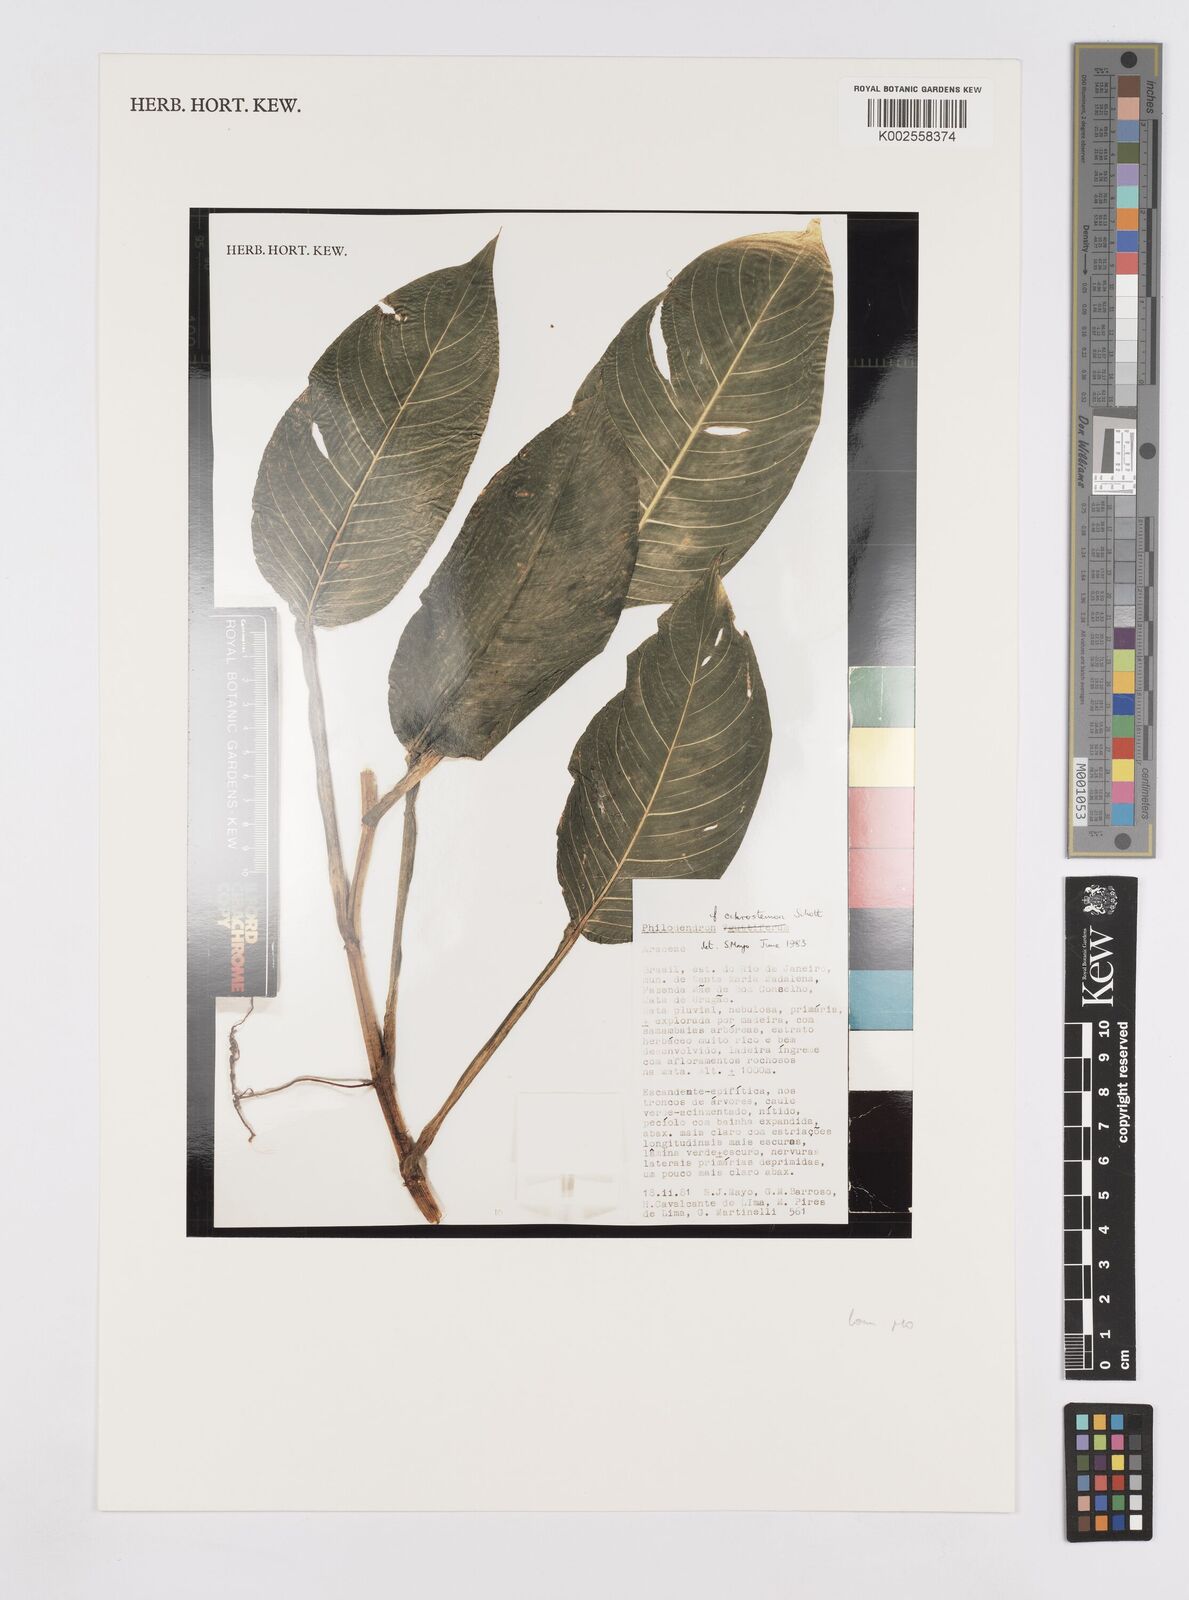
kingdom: Plantae
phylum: Tracheophyta
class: Liliopsida
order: Alismatales
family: Araceae
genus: Philodendron
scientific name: Philodendron ochrostemon
